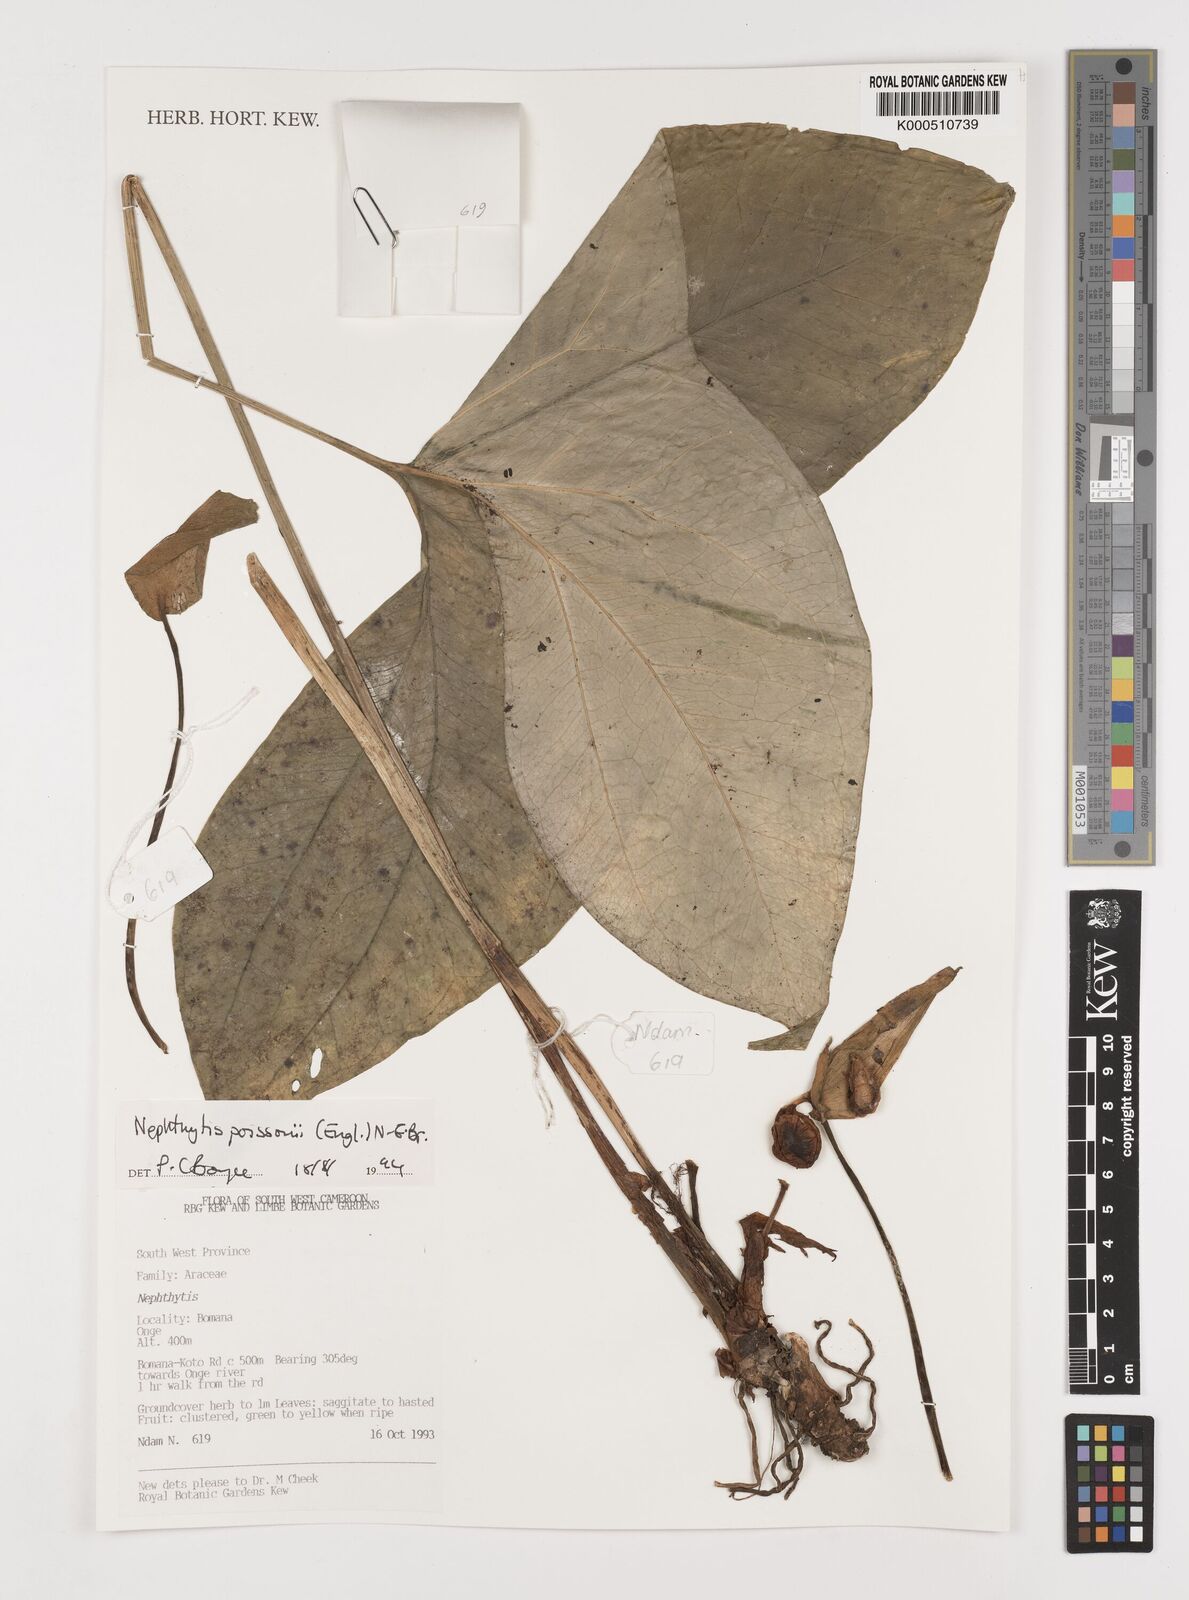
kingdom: Plantae
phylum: Tracheophyta
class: Liliopsida
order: Alismatales
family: Araceae
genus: Nephthytis
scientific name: Nephthytis poissonii
